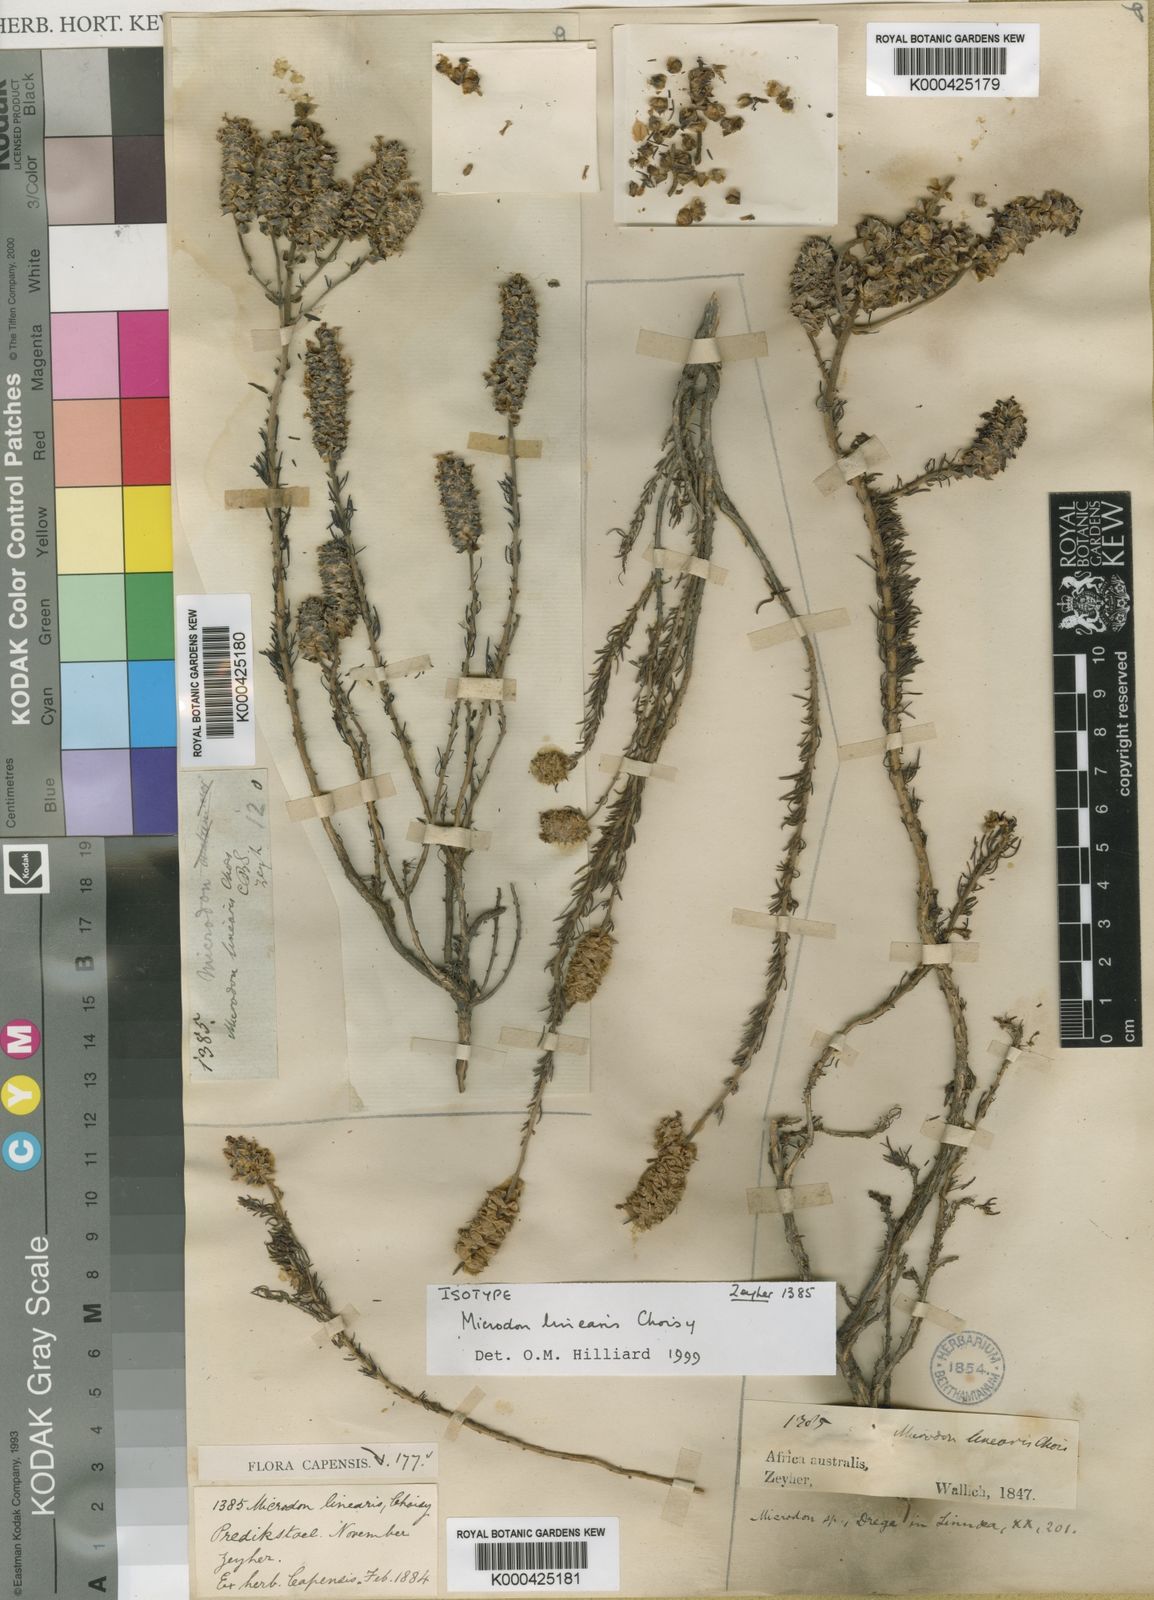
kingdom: Plantae
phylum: Tracheophyta
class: Magnoliopsida
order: Lamiales
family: Scrophulariaceae
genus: Microdon
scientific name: Microdon linearis
